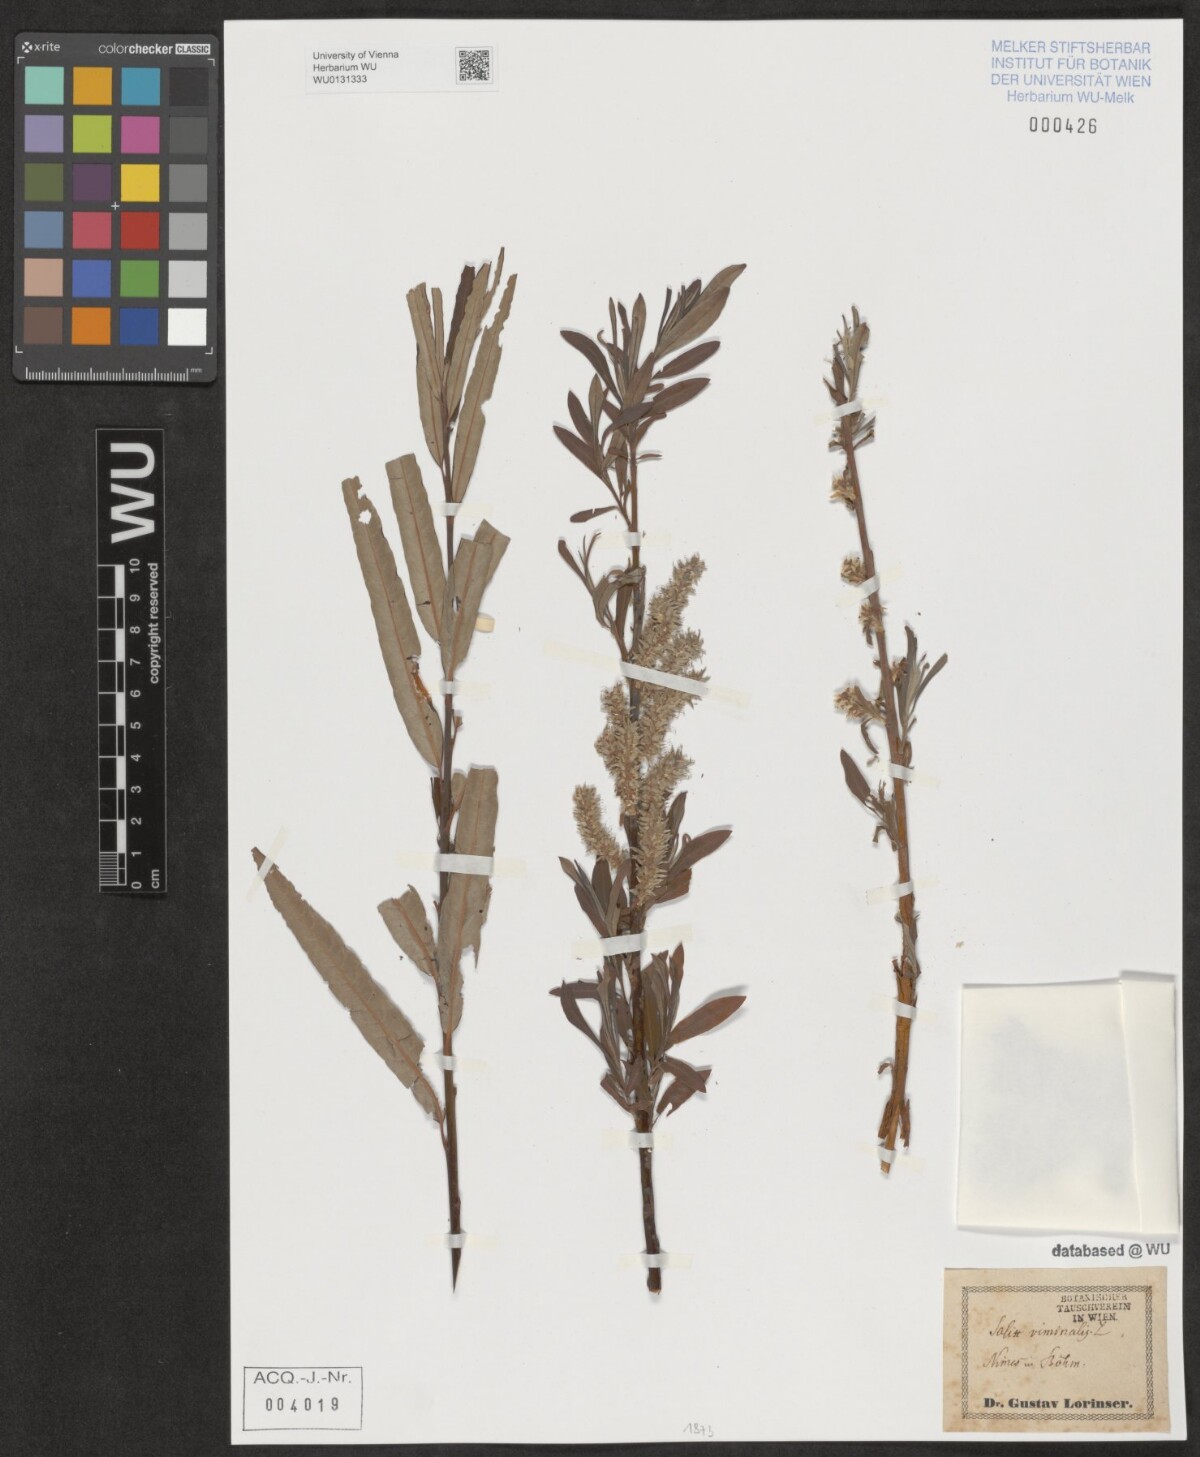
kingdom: Plantae
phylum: Tracheophyta
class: Magnoliopsida
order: Malpighiales
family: Salicaceae
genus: Salix
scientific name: Salix viminalis
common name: Osier
